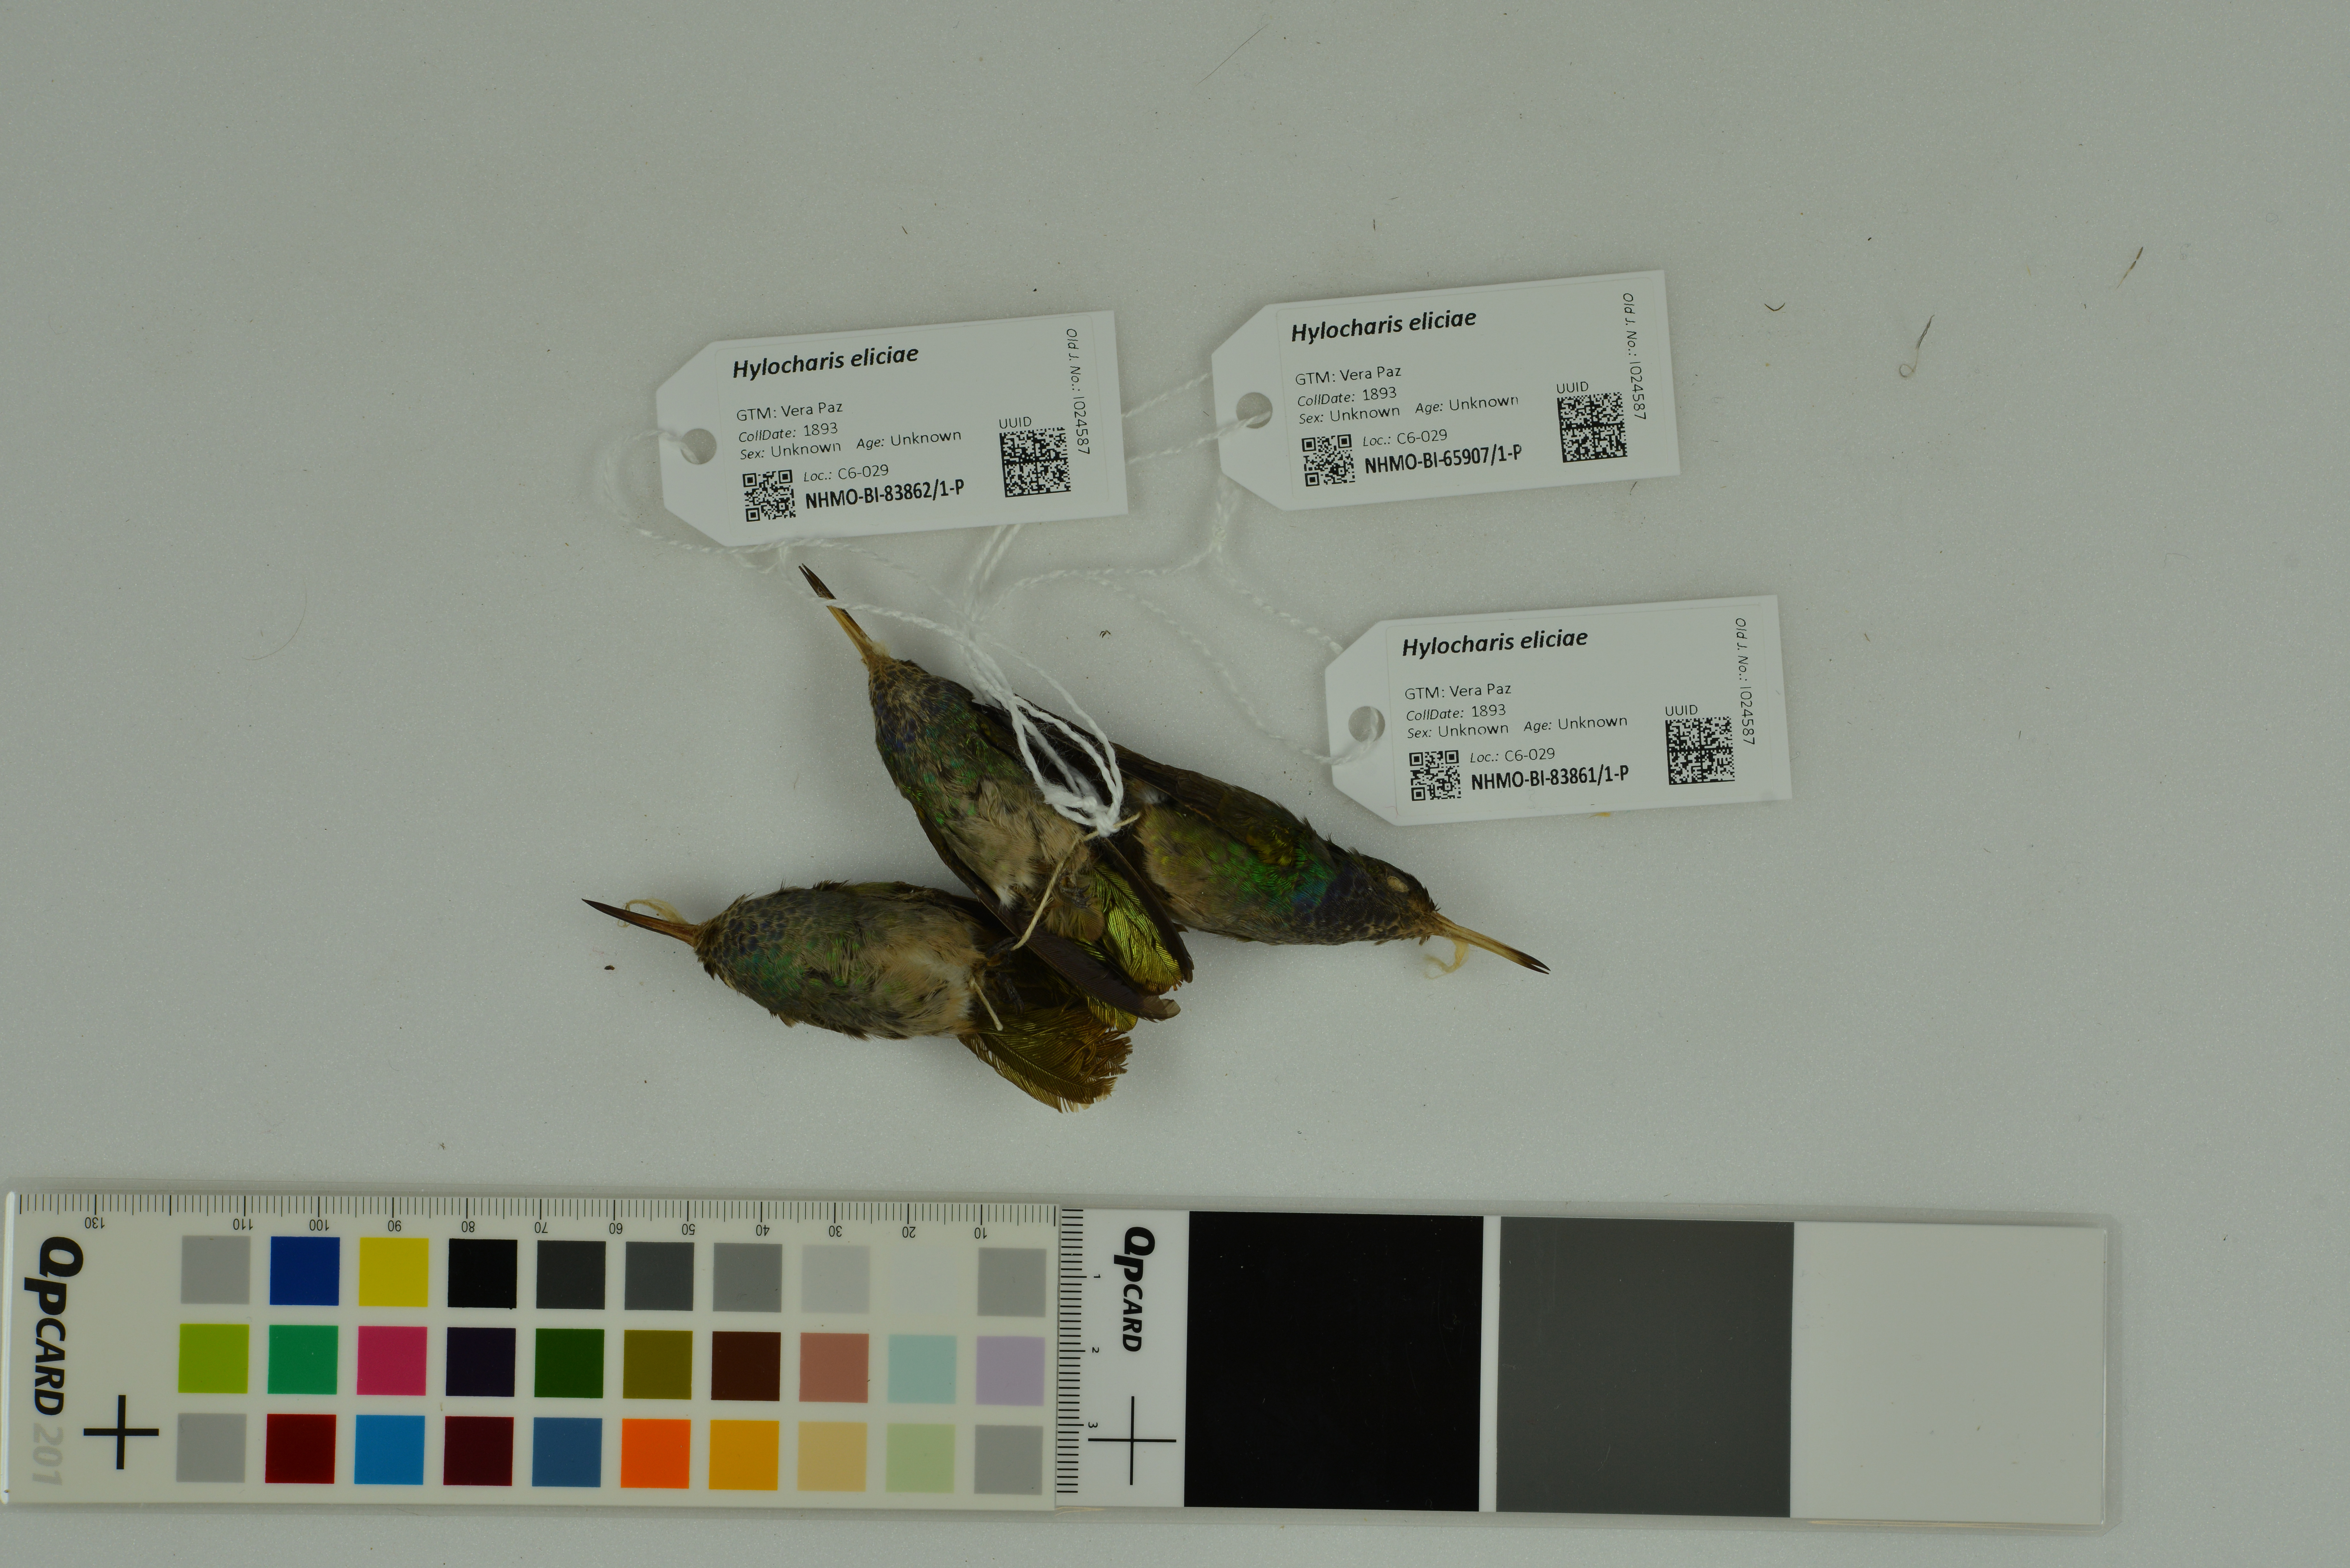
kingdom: Animalia
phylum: Chordata
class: Aves
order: Apodiformes
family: Trochilidae
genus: Chlorestes
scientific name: Chlorestes eliciae
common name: Blue-throated sapphire
